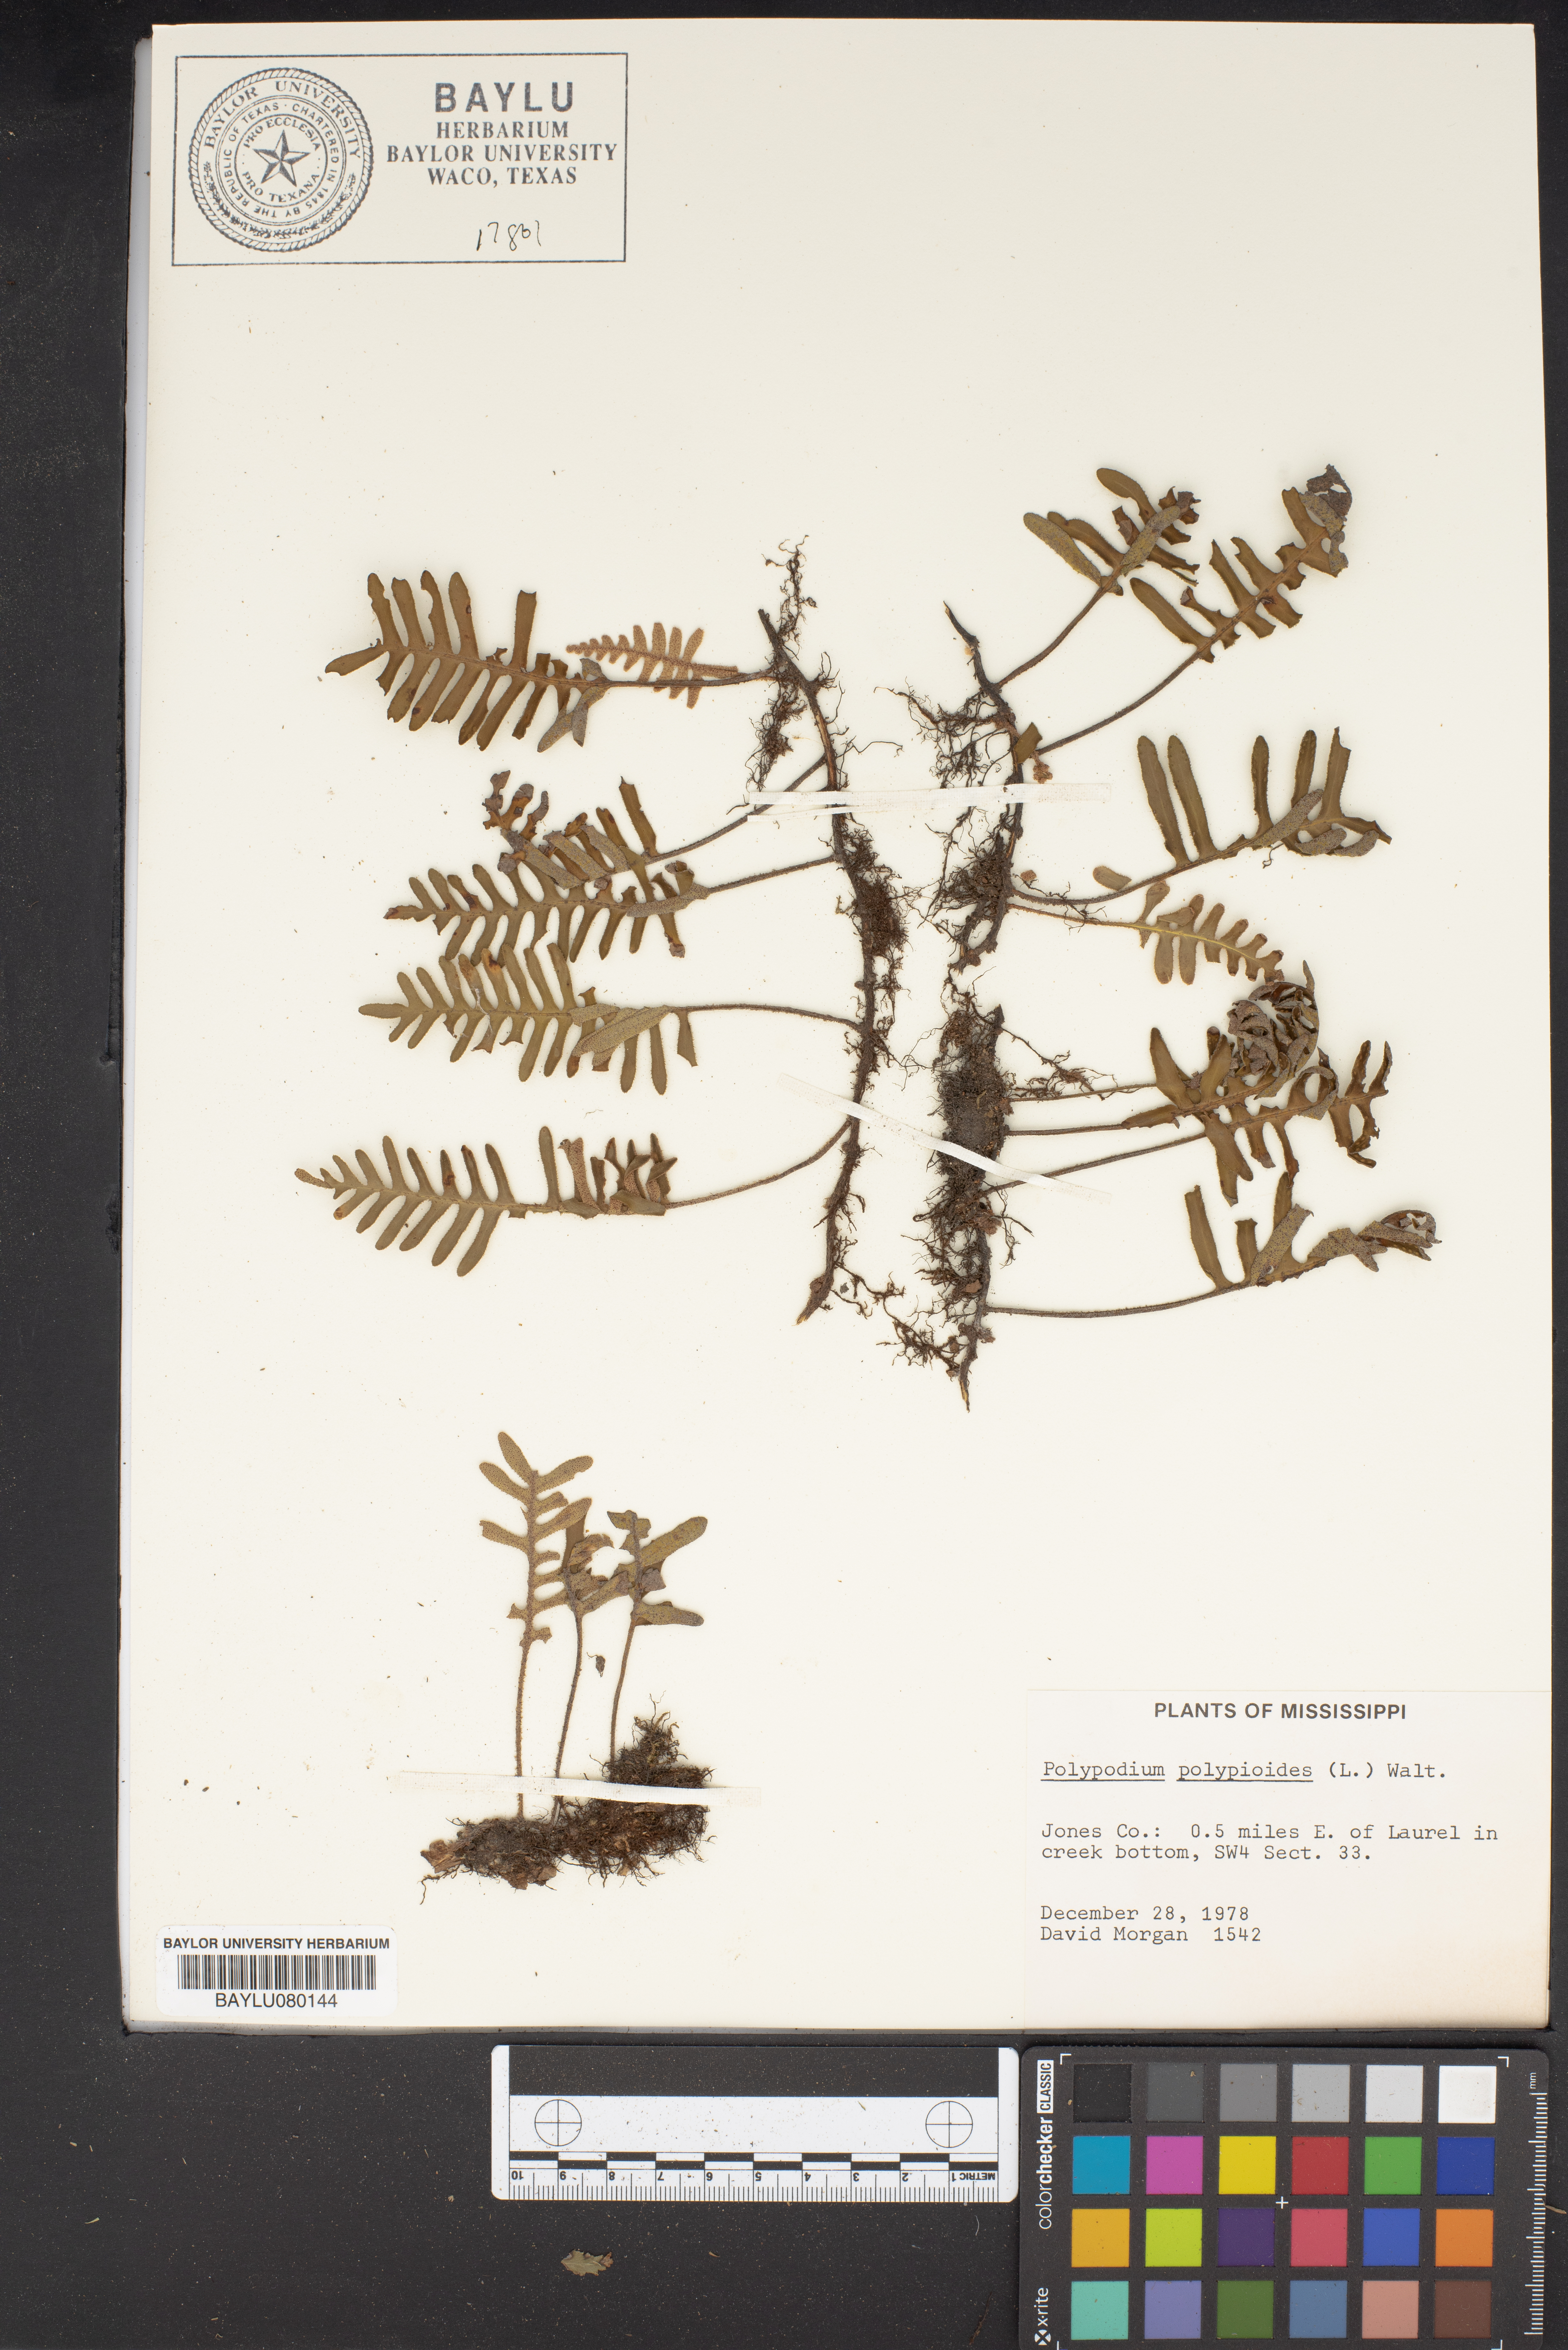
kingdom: Plantae
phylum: Tracheophyta
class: Polypodiopsida
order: Polypodiales
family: Polypodiaceae
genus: Pleopeltis
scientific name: Pleopeltis polypodioides
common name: Resurrection fern
